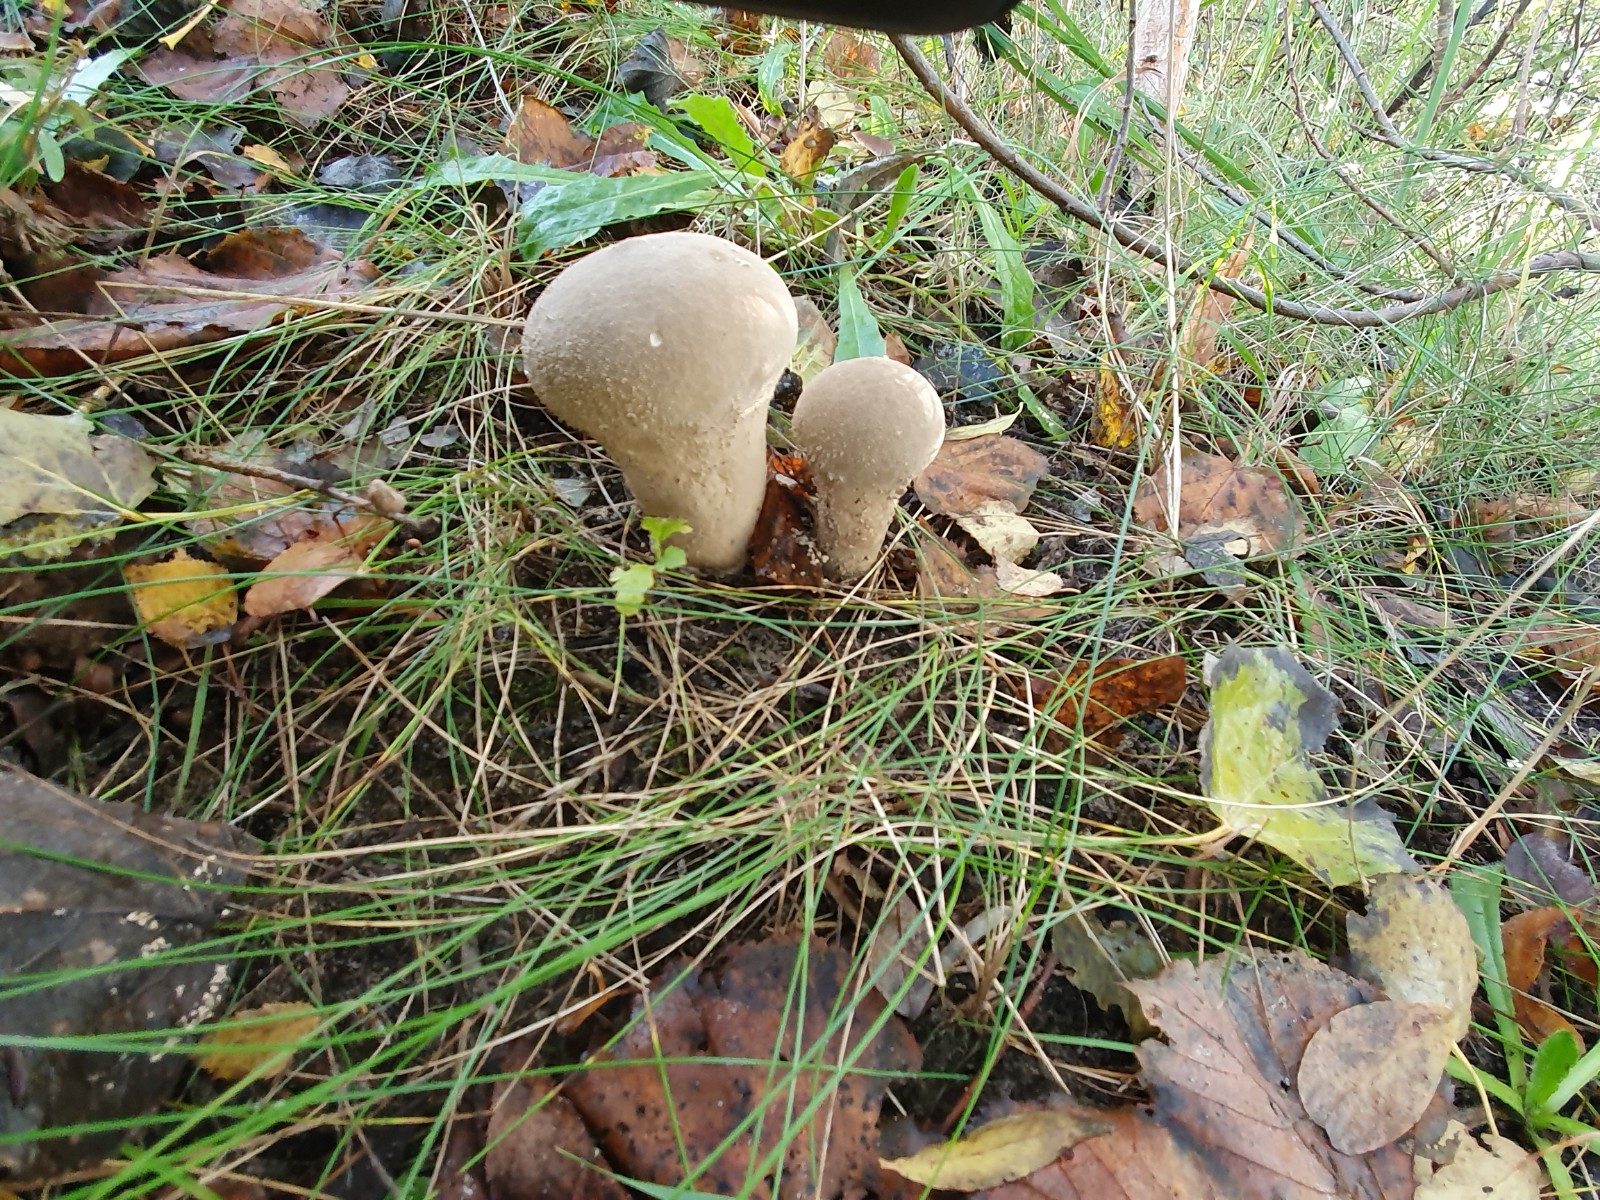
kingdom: Fungi
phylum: Basidiomycota
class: Agaricomycetes
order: Agaricales
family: Lycoperdaceae
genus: Lycoperdon
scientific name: Lycoperdon excipuliforme
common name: højstokket støvbold
